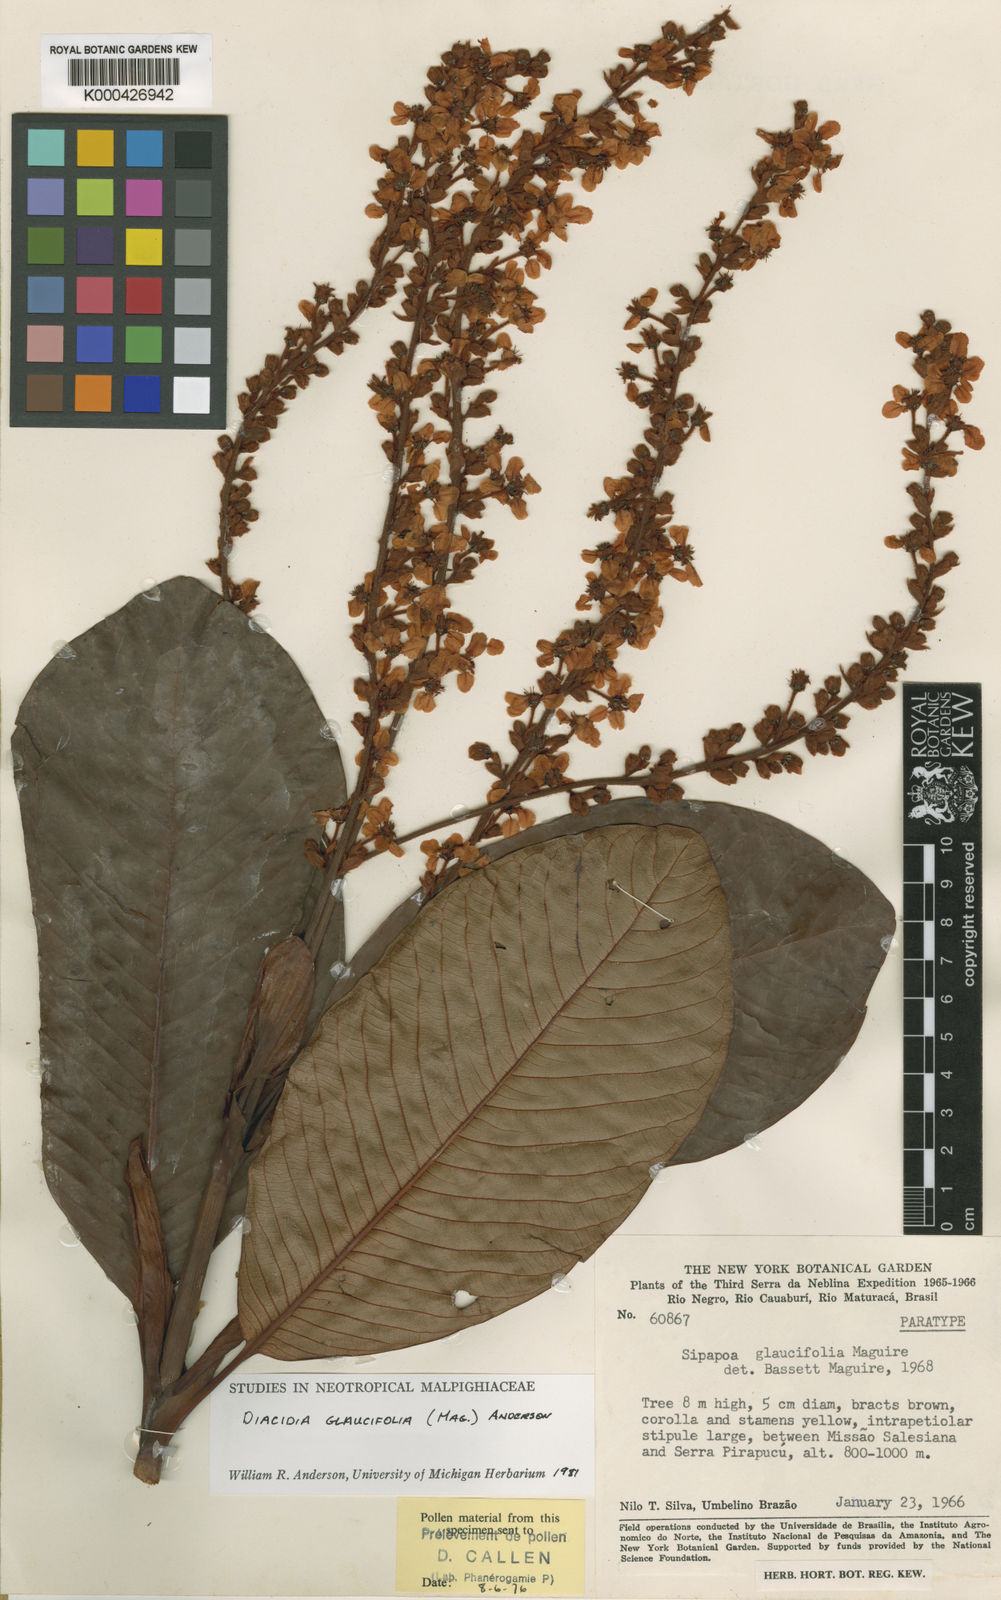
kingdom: Plantae
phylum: Tracheophyta
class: Magnoliopsida
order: Malpighiales
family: Malpighiaceae
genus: Diacidia
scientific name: Diacidia glaucifolia
